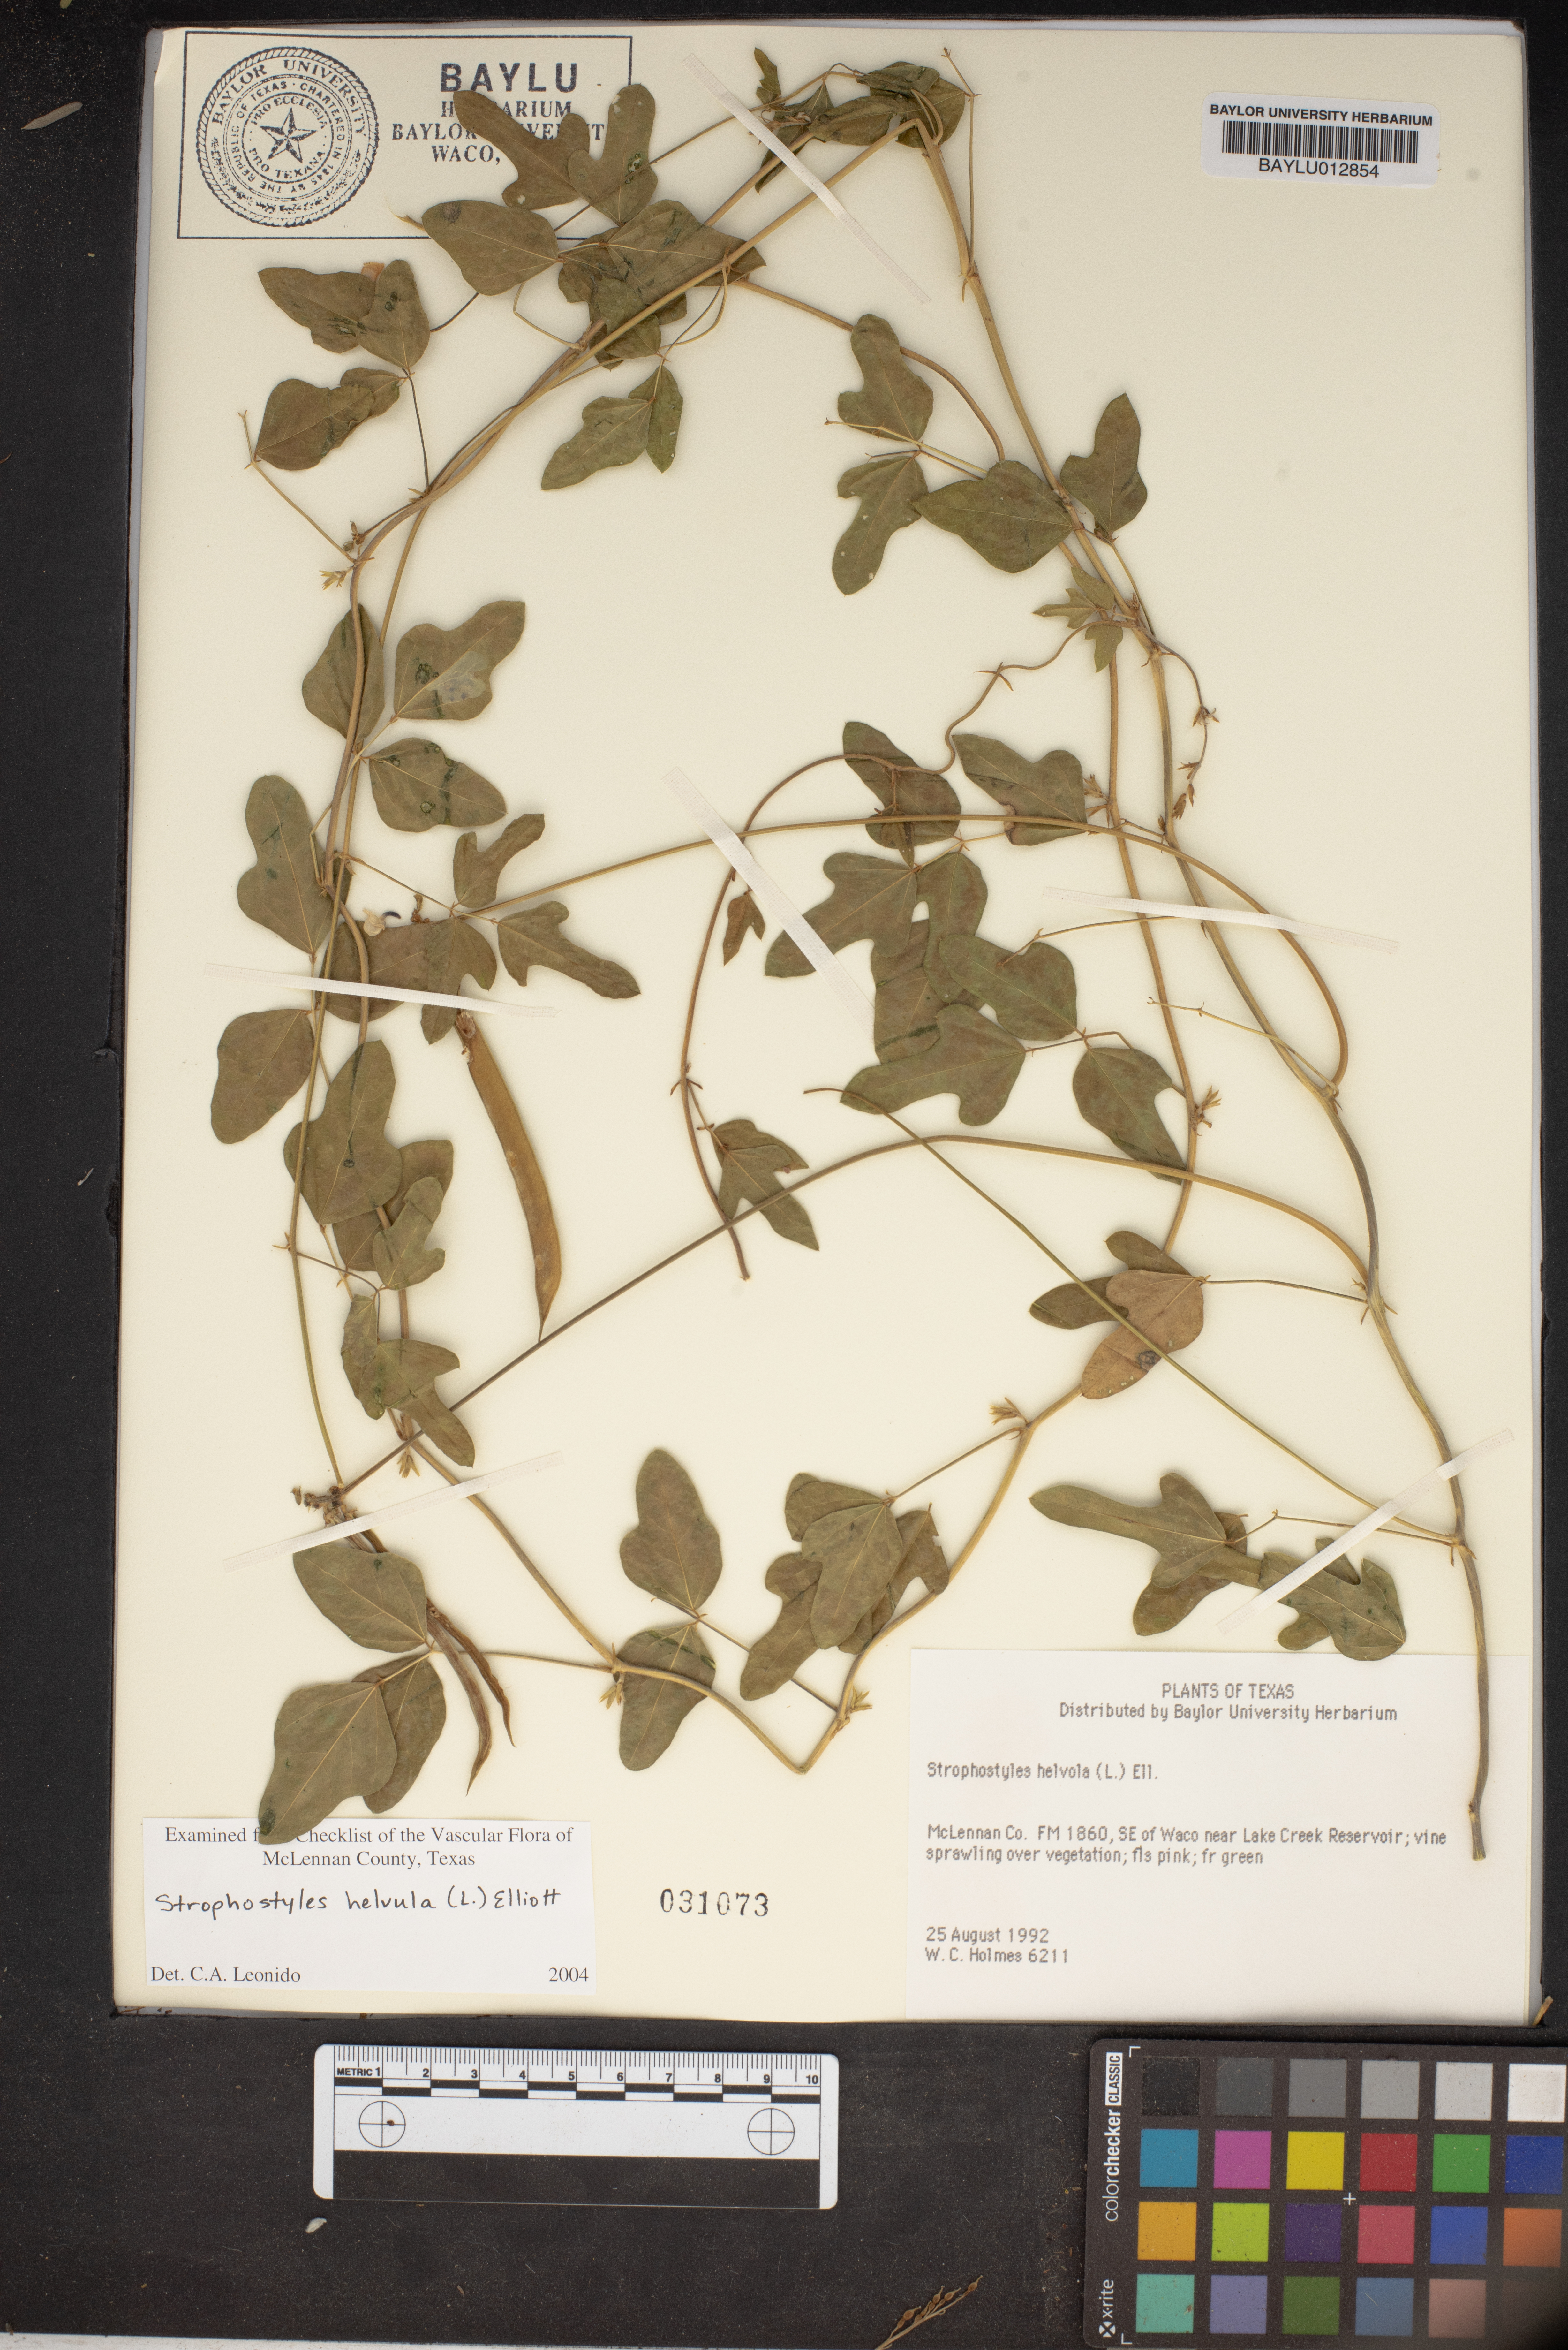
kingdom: Plantae
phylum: Tracheophyta
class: Magnoliopsida
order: Fabales
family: Fabaceae
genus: Strophostyles
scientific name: Strophostyles helvola
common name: Trailing wild bean
